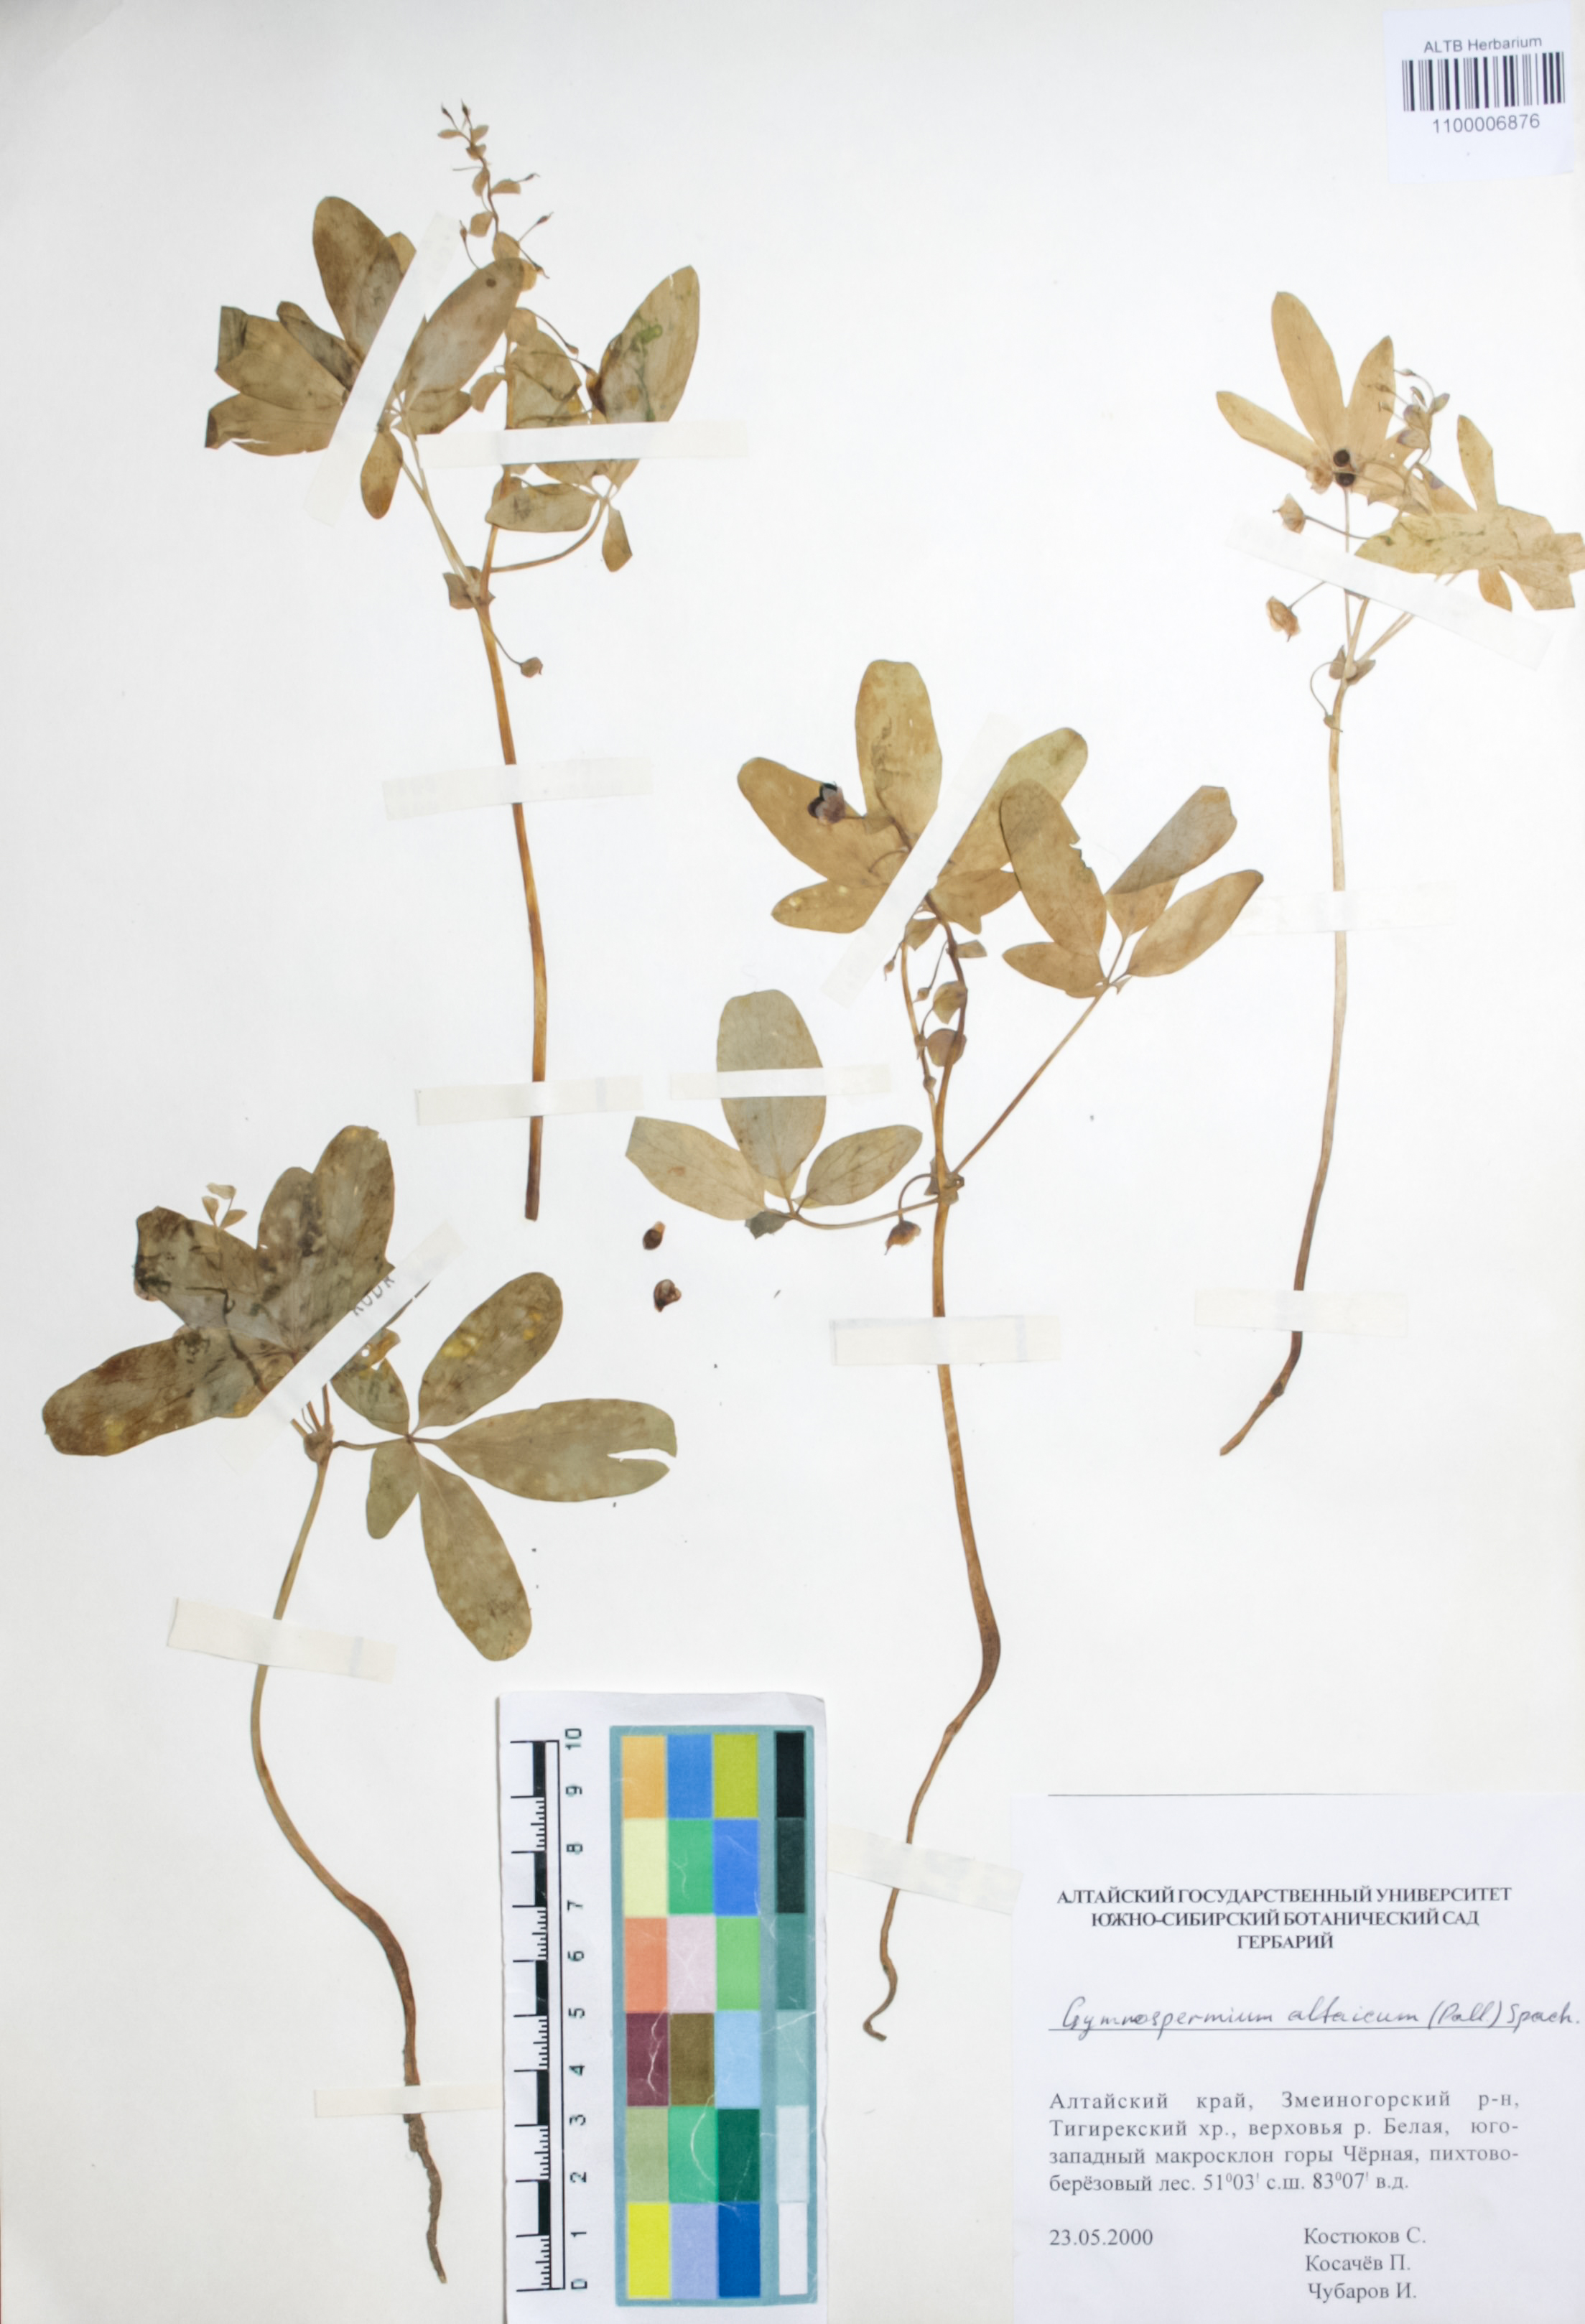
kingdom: Plantae
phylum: Tracheophyta
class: Magnoliopsida
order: Ranunculales
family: Berberidaceae
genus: Gymnospermium
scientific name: Gymnospermium altaicum
